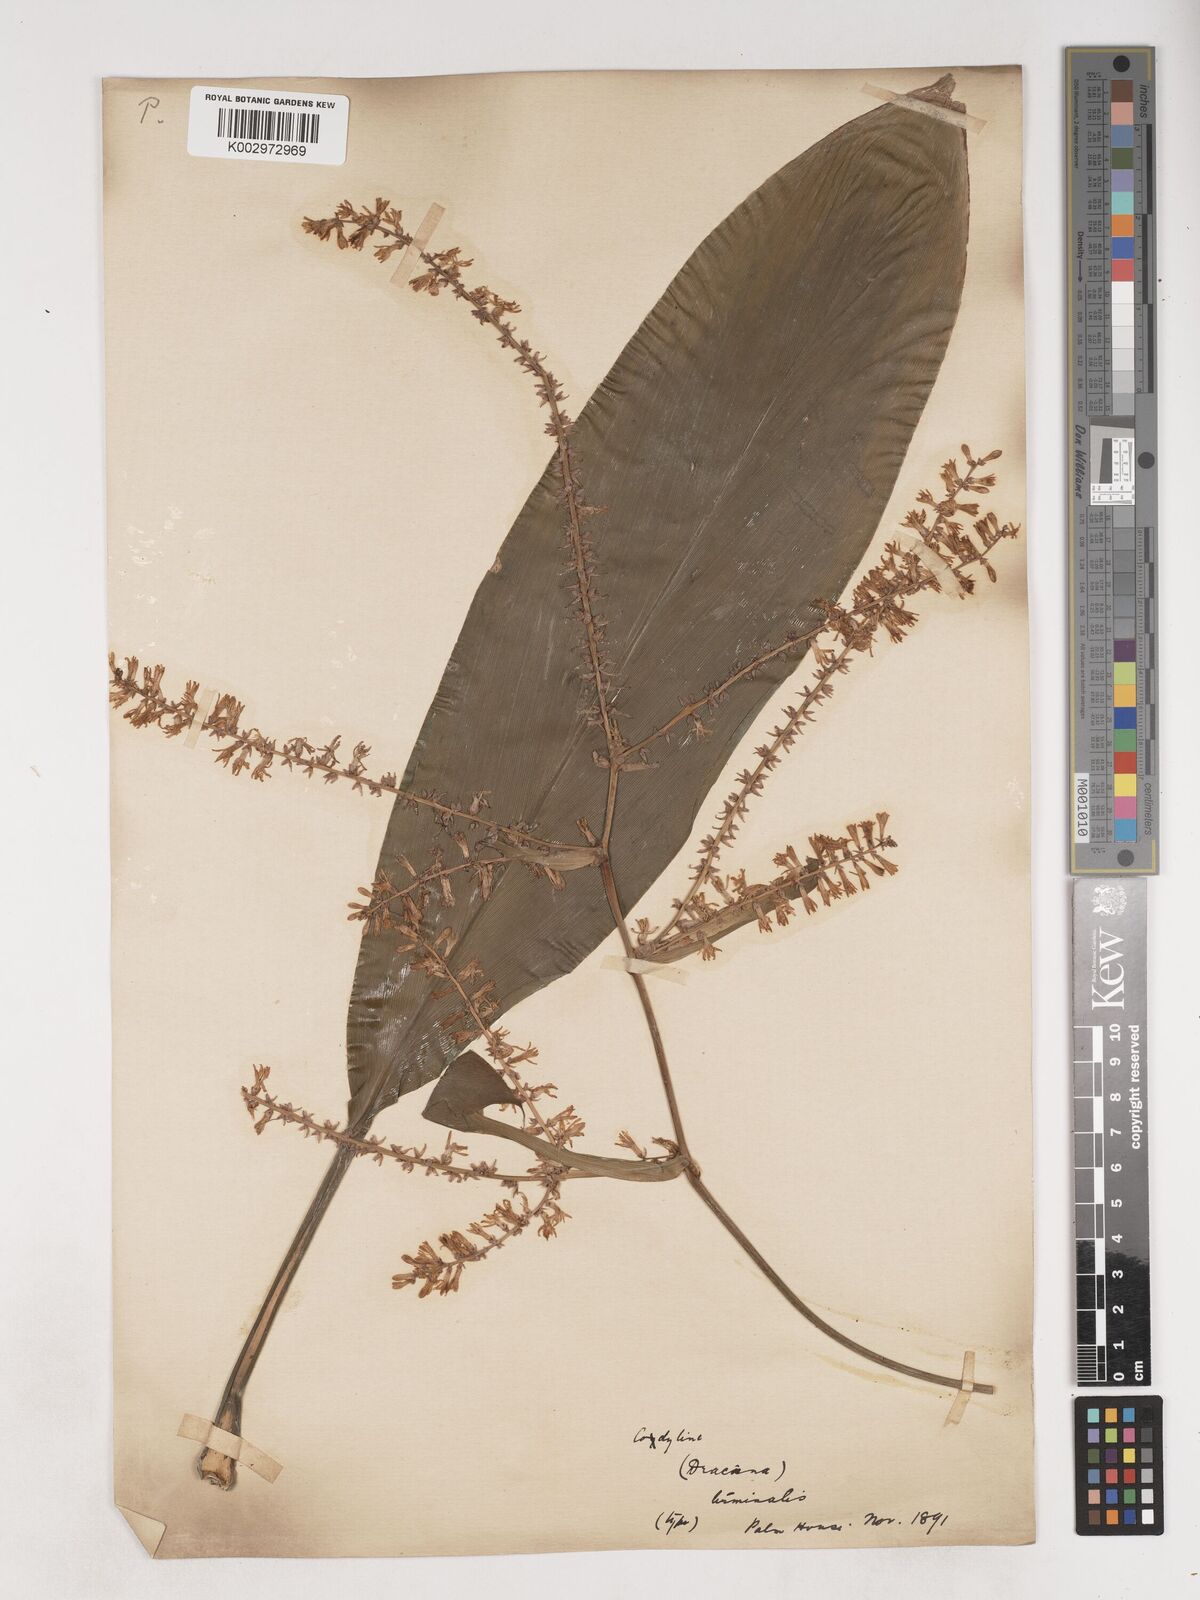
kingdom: Plantae
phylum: Tracheophyta
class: Liliopsida
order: Asparagales
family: Asparagaceae
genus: Cordyline
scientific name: Cordyline fruticosa
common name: Good-luck-plant
